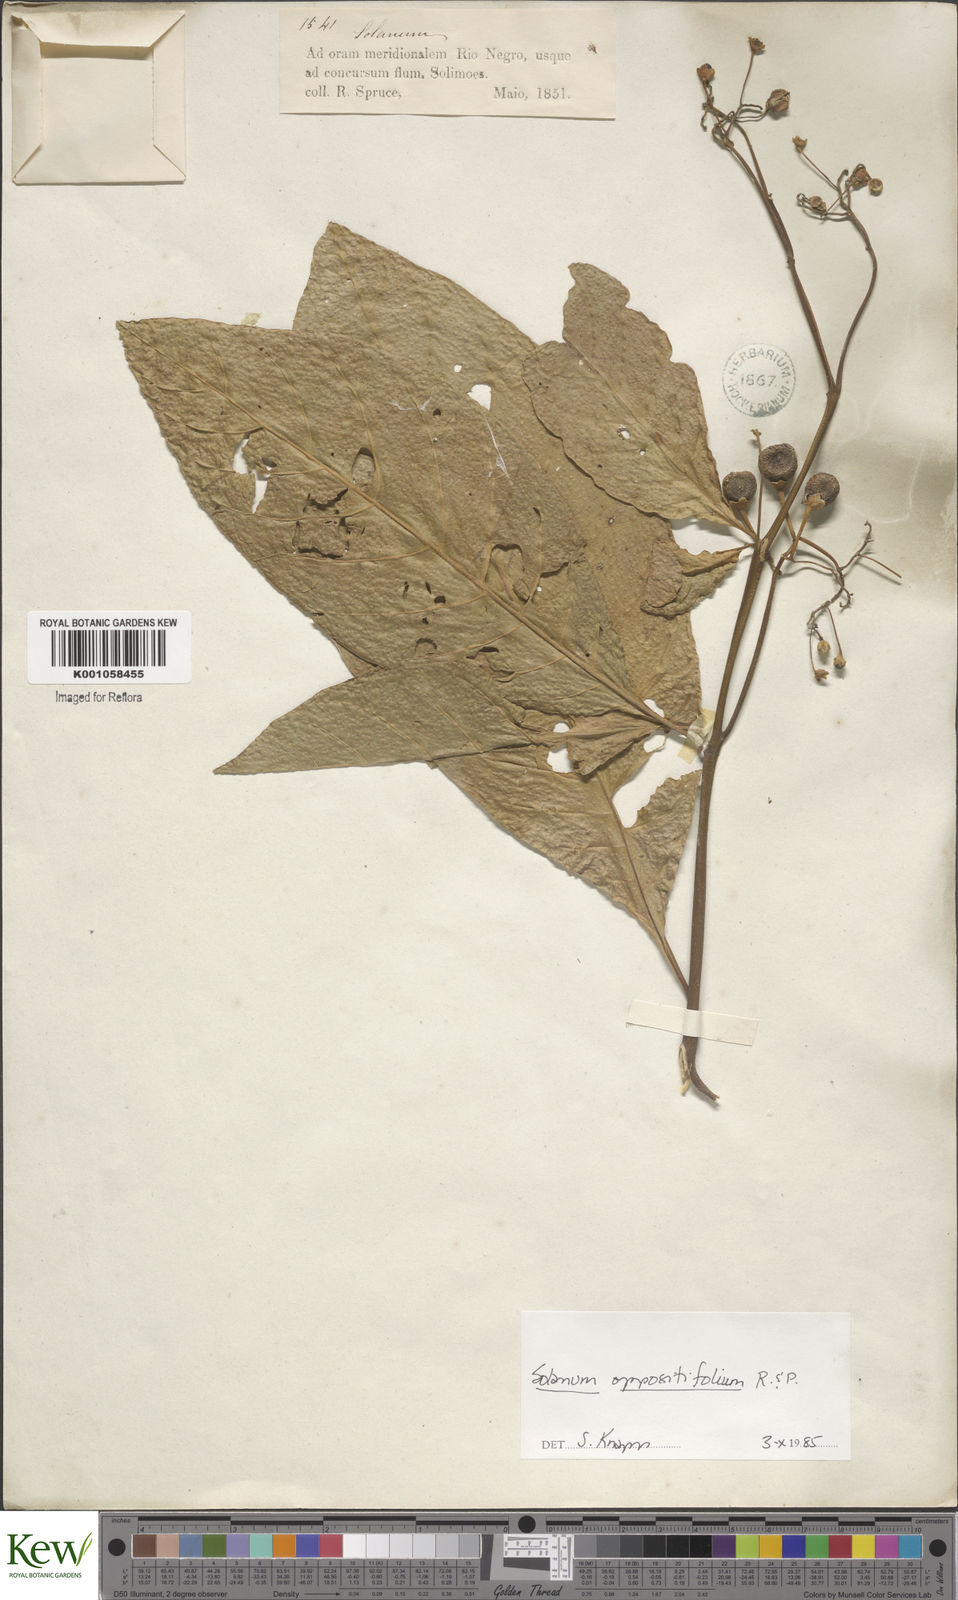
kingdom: Plantae
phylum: Tracheophyta
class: Magnoliopsida
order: Solanales
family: Solanaceae
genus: Solanum
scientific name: Solanum oppositifolium
